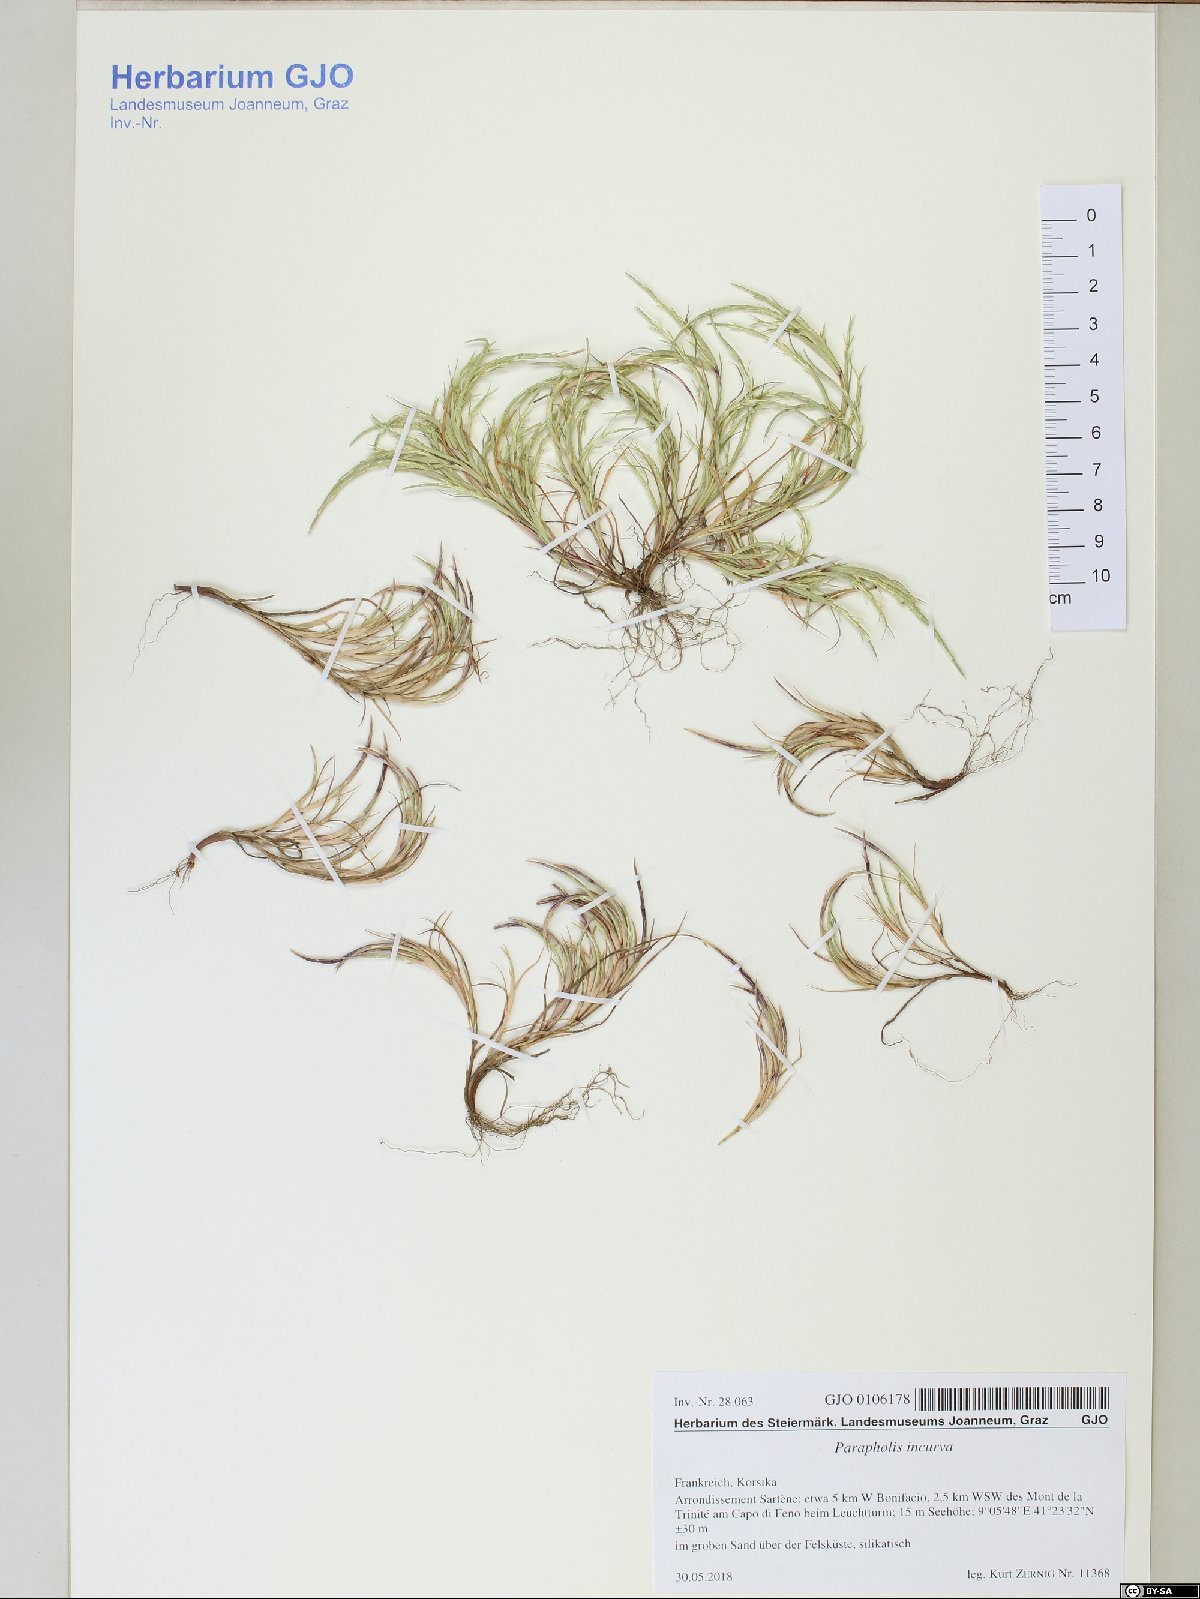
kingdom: Plantae
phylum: Tracheophyta
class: Liliopsida
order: Poales
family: Poaceae
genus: Parapholis
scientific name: Parapholis incurva
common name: Curved sicklegrass
